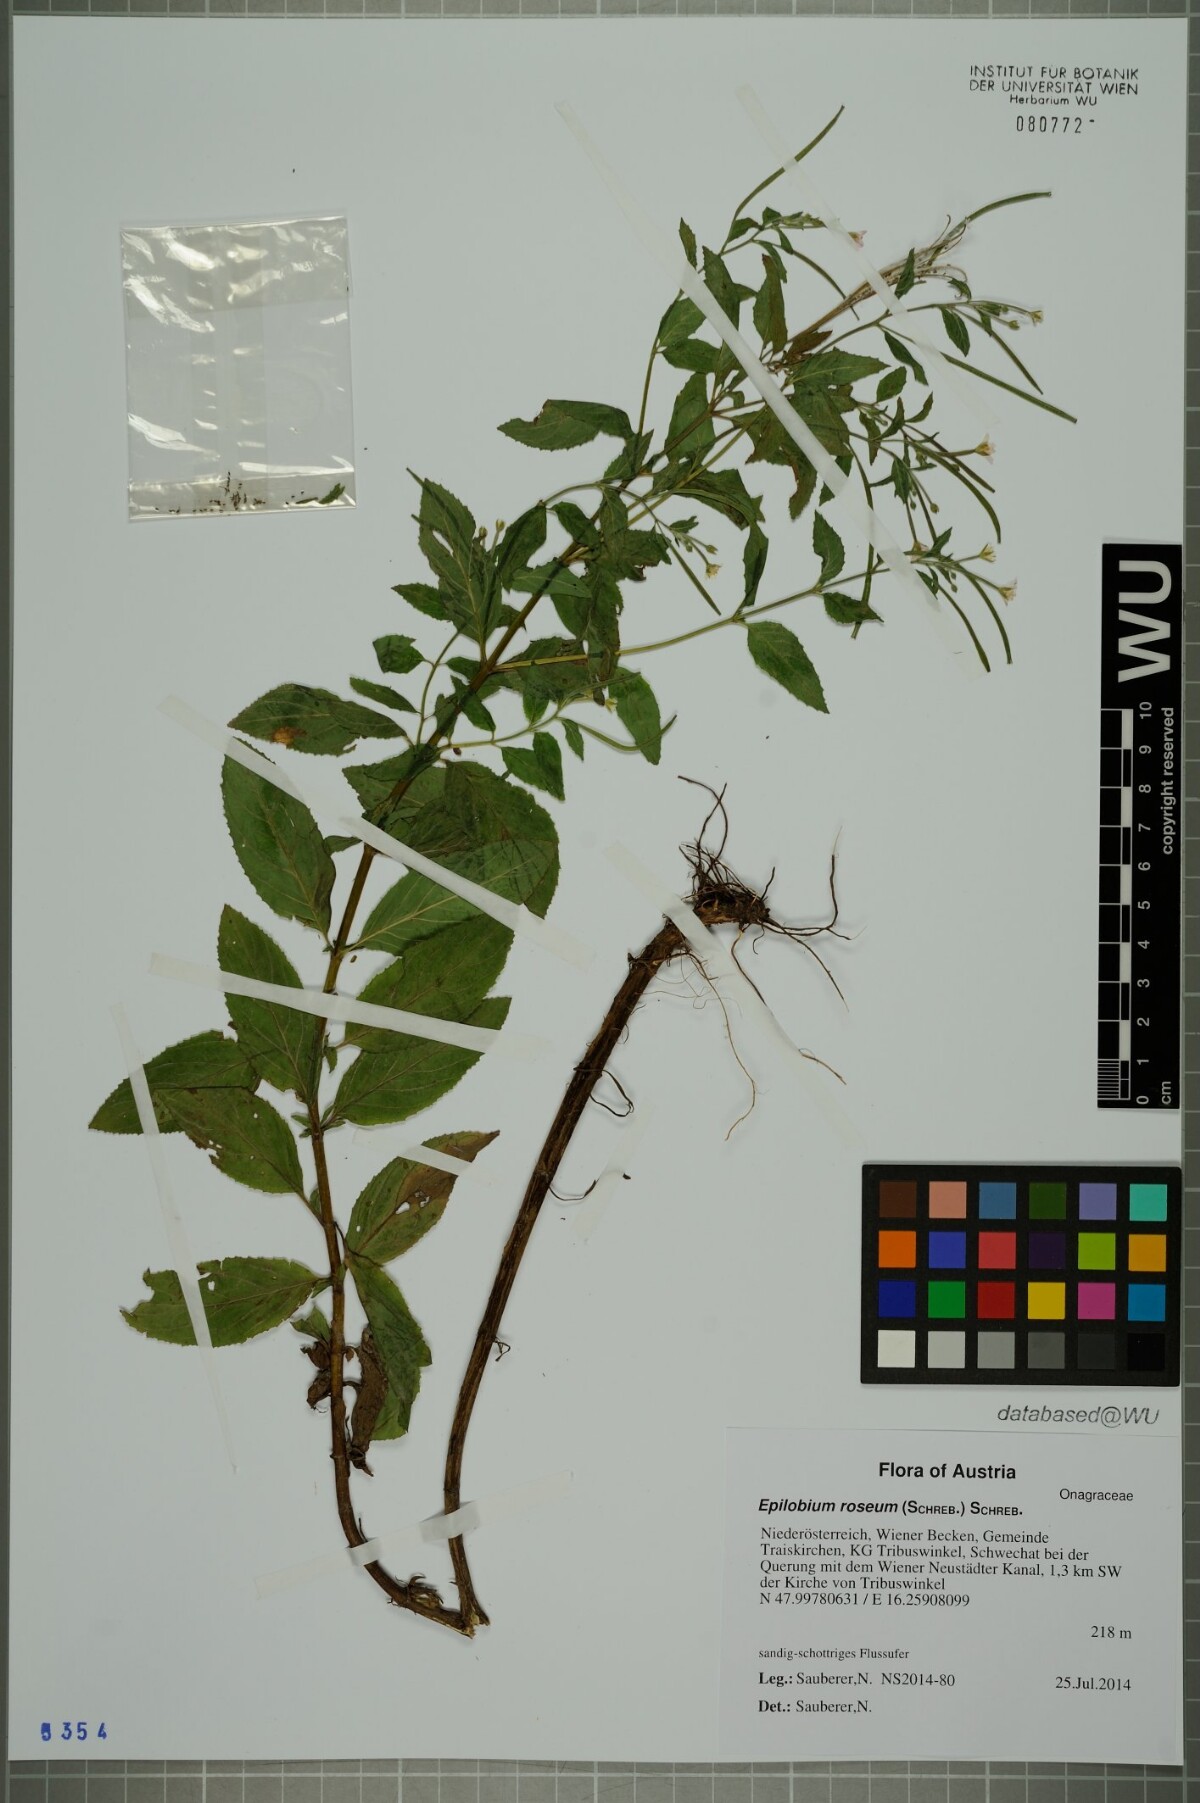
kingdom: Plantae
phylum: Tracheophyta
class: Magnoliopsida
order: Myrtales
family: Onagraceae
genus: Epilobium
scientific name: Epilobium roseum
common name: Pale willowherb
